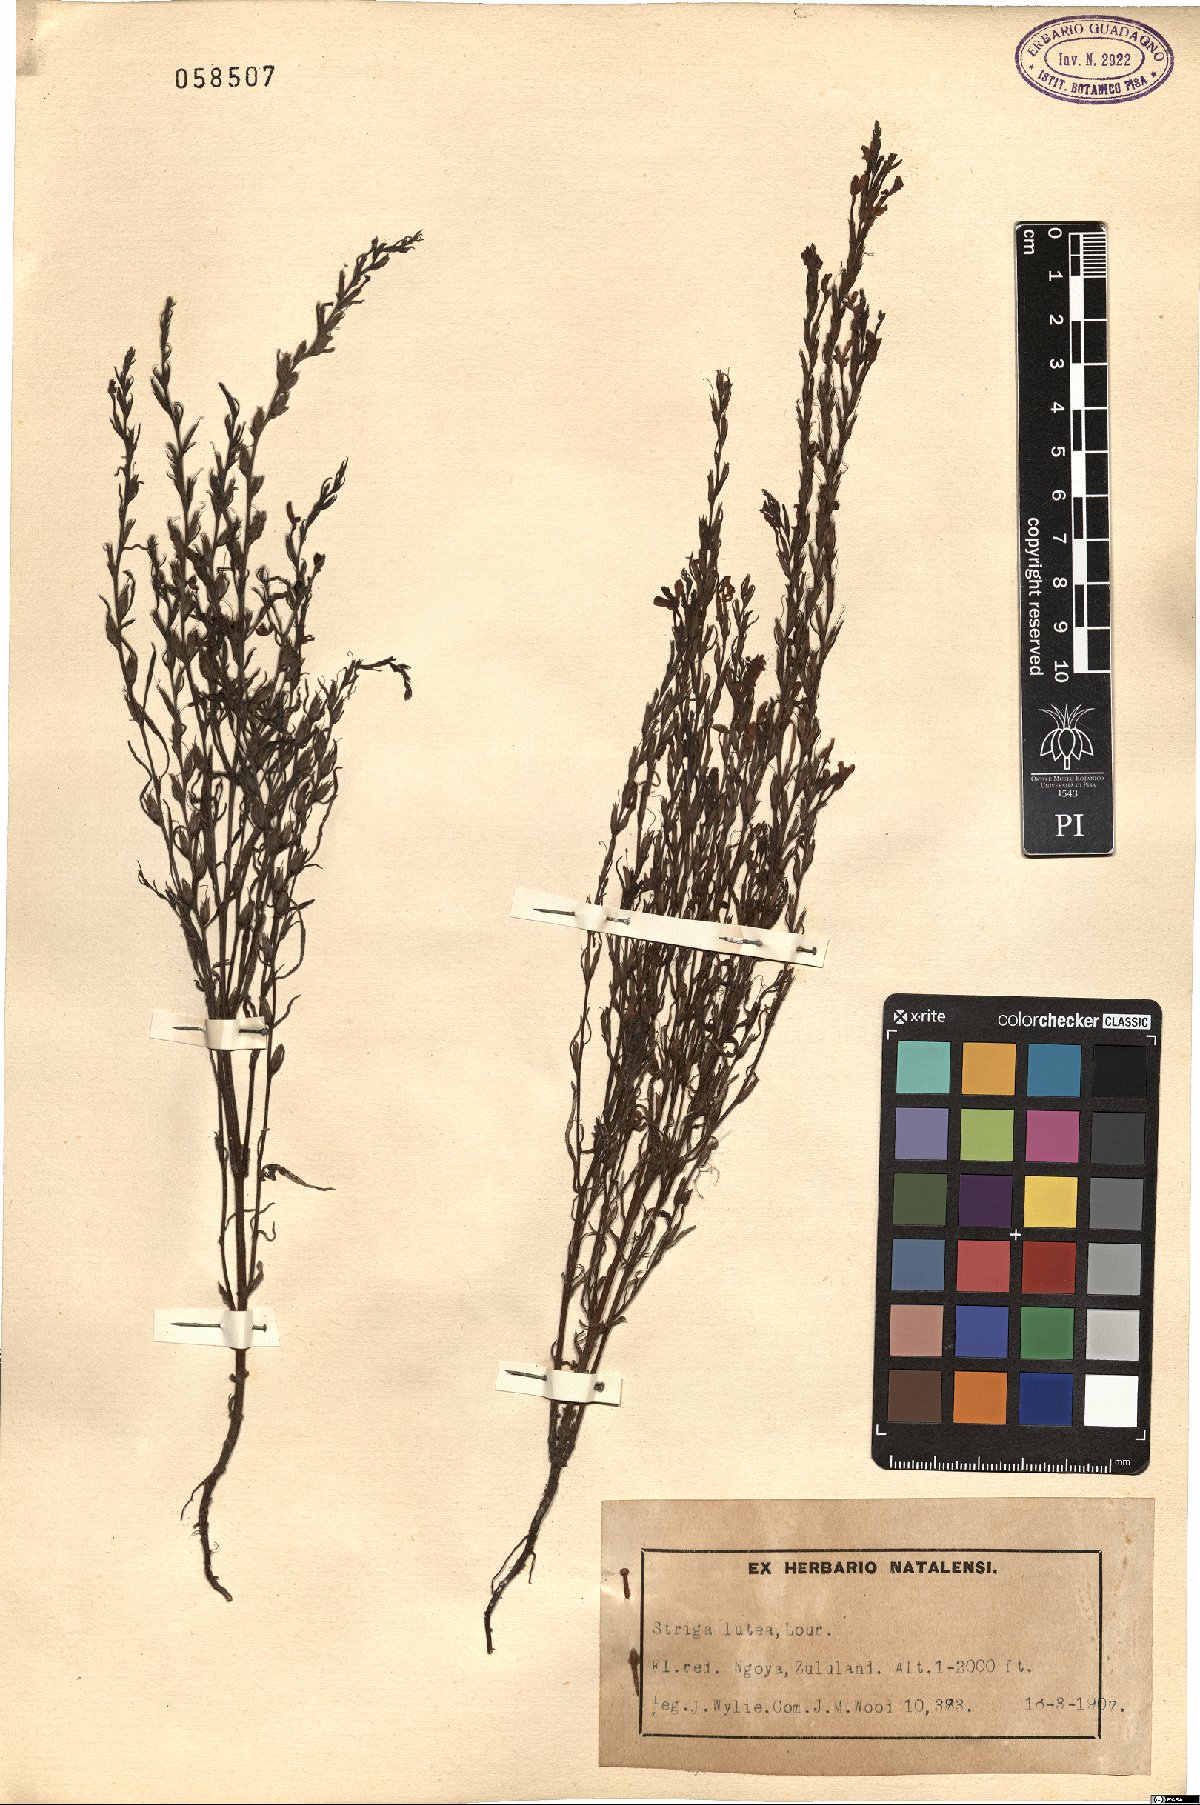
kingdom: Plantae
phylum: Tracheophyta
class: Magnoliopsida
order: Lamiales
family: Orobanchaceae
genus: Striga
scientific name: Striga lutea
